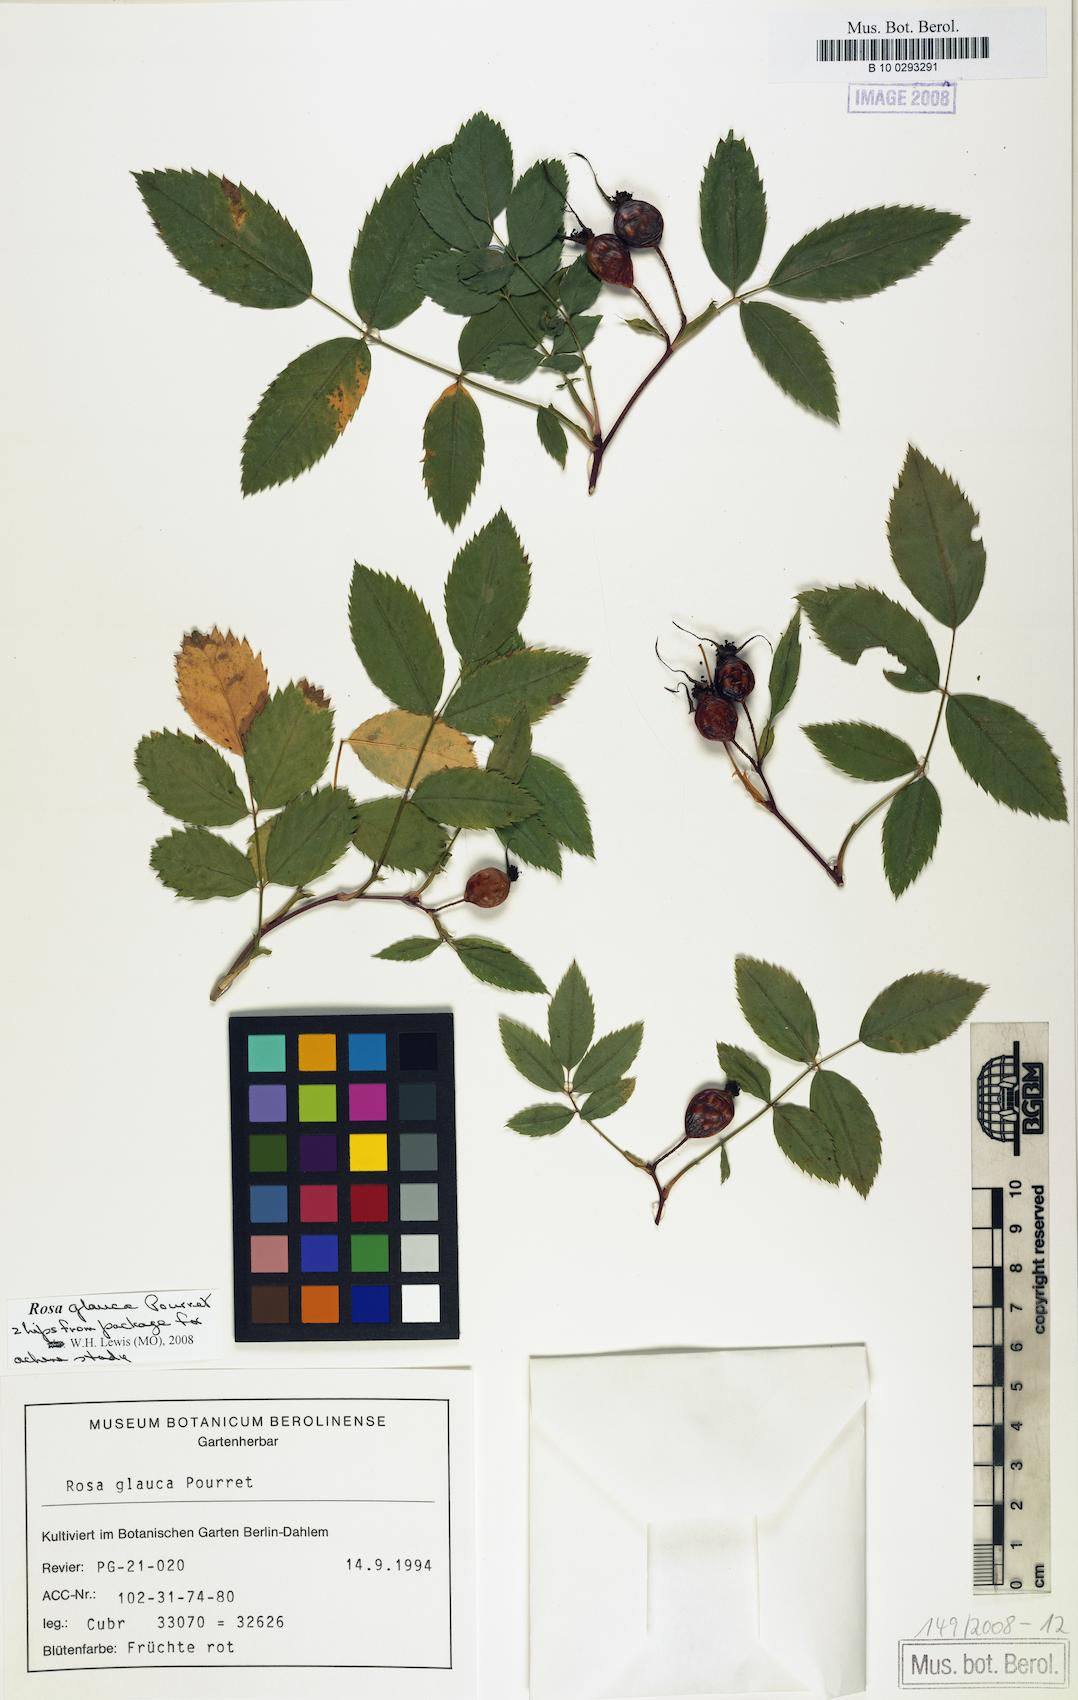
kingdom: Plantae
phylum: Tracheophyta
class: Magnoliopsida
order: Rosales
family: Rosaceae
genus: Rosa
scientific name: Rosa glauca
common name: Redleaf rose
